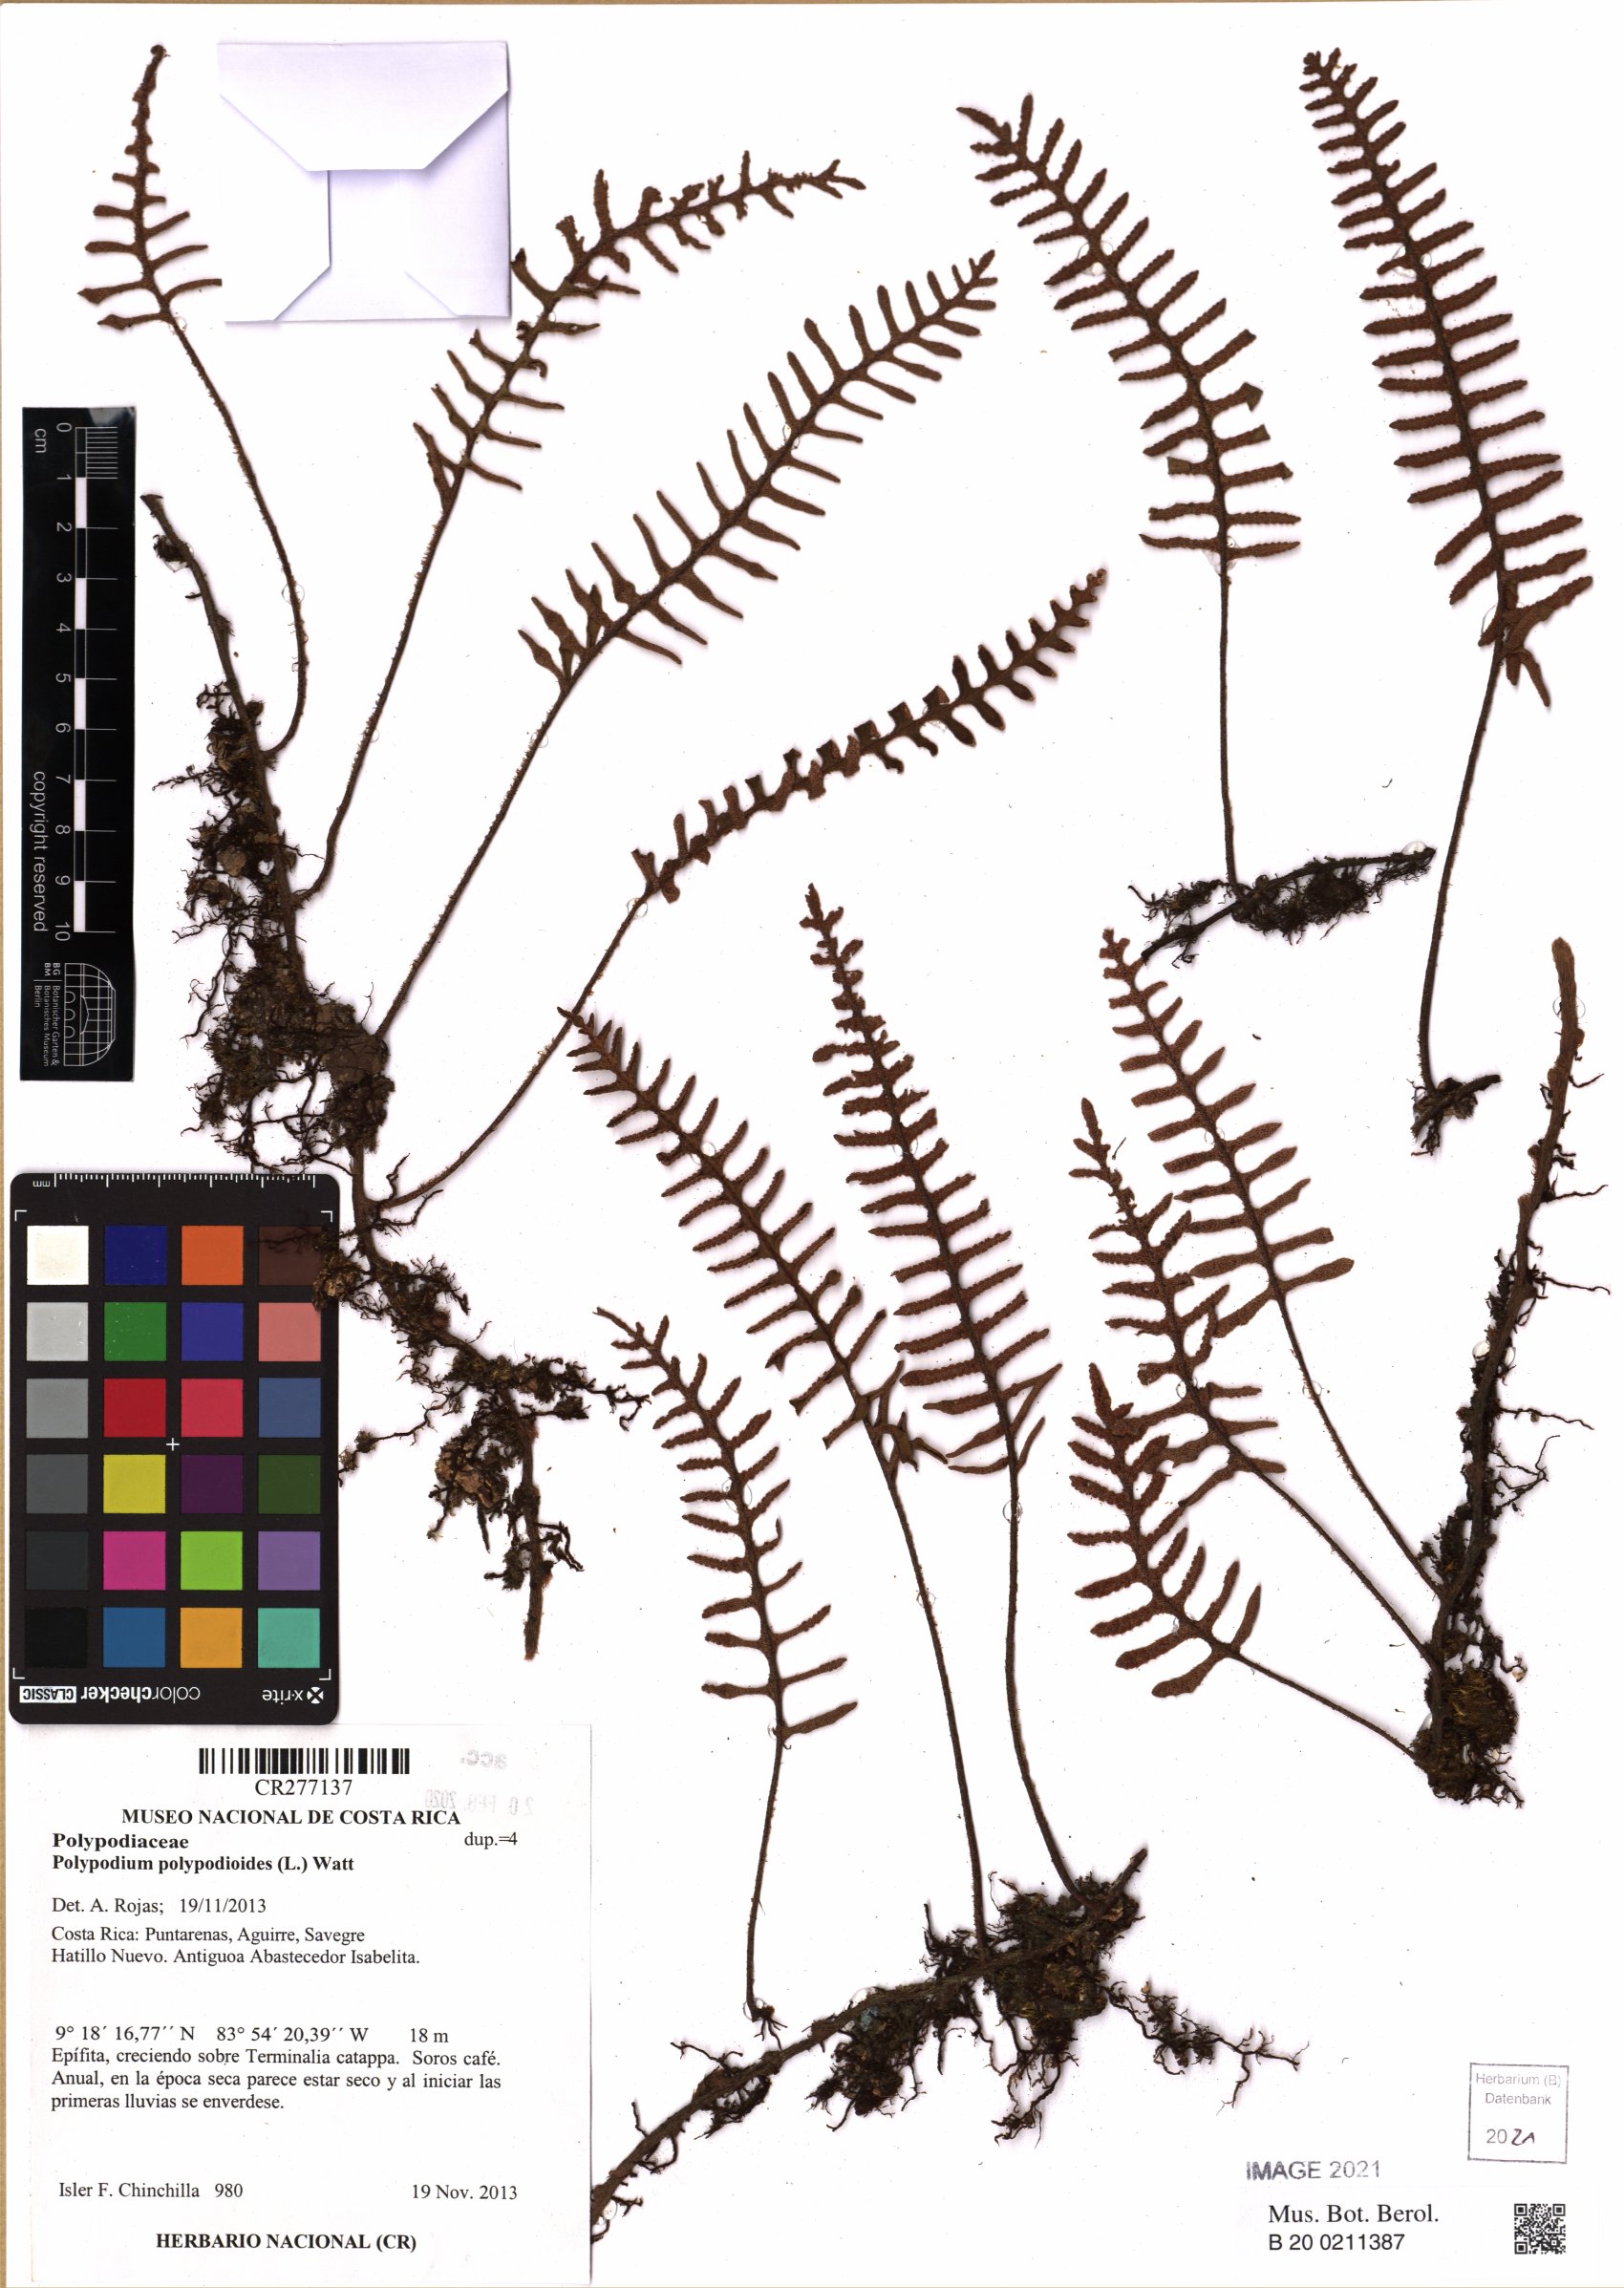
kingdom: Plantae
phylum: Tracheophyta
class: Polypodiopsida
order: Polypodiales
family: Polypodiaceae
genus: Pleopeltis
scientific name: Pleopeltis polypodioides
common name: Resurrection fern
